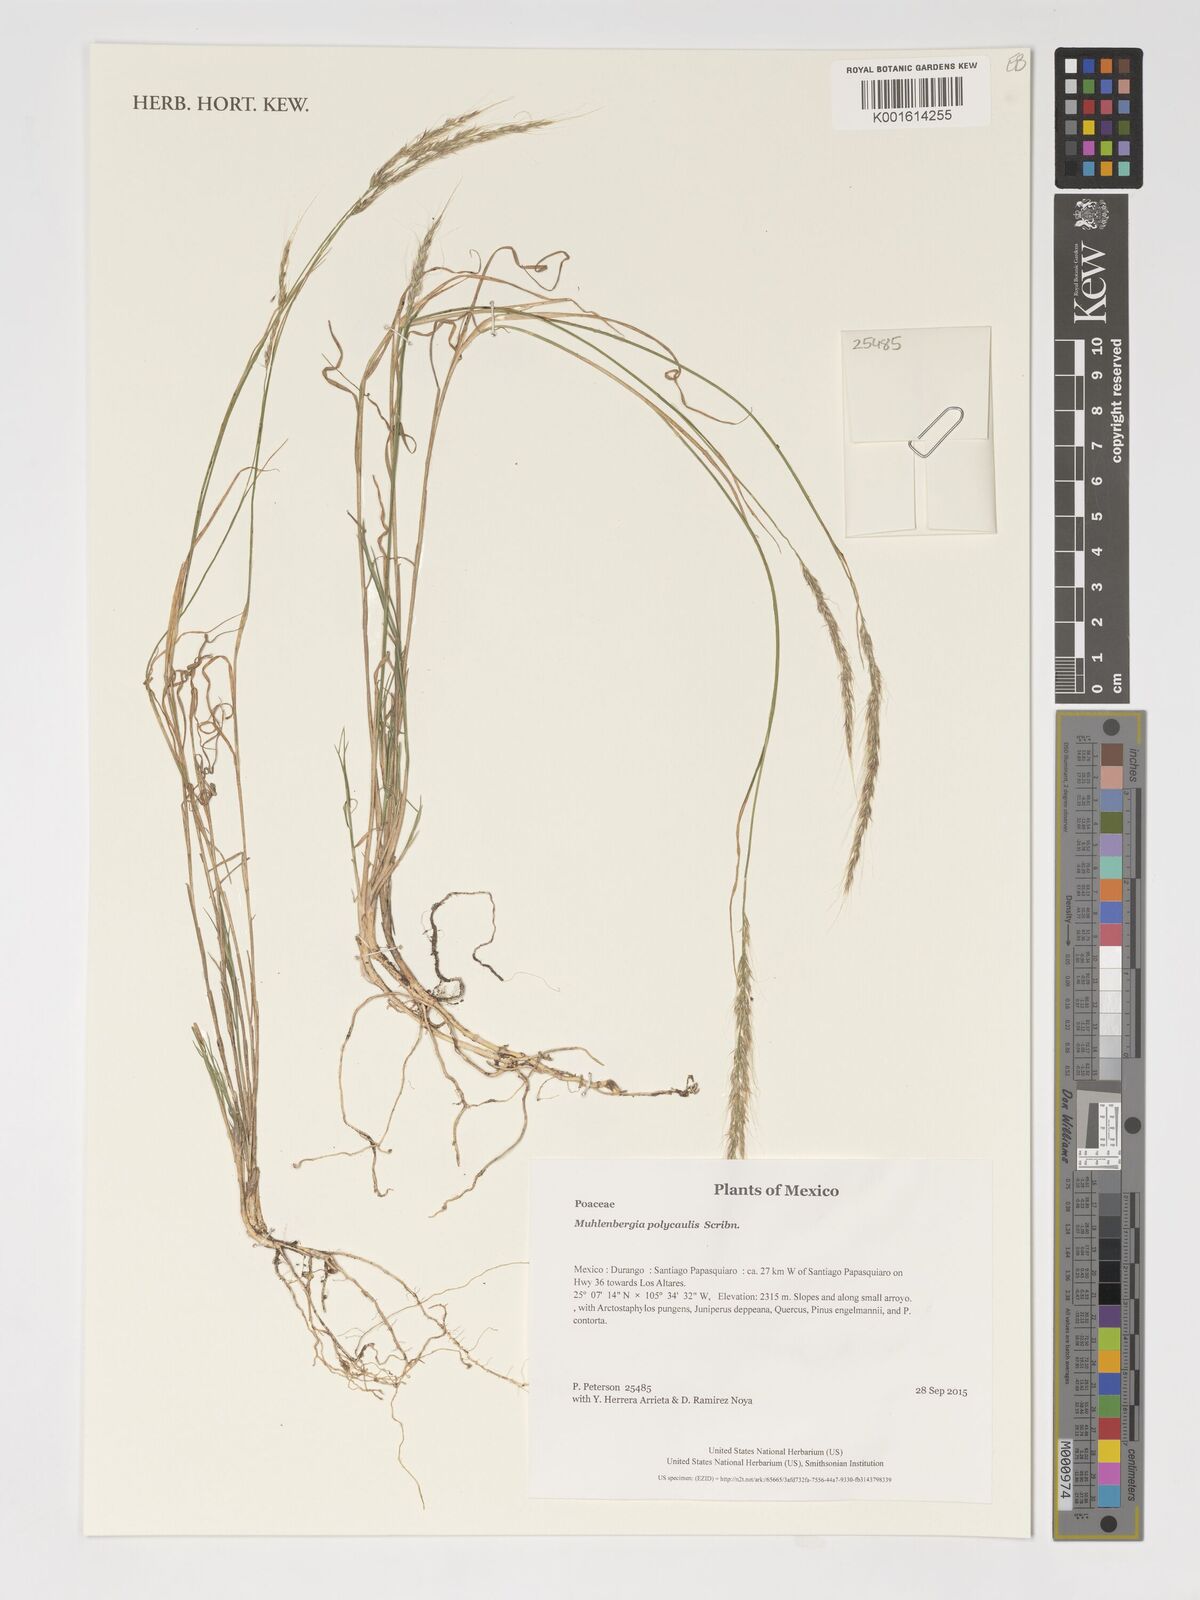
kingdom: Plantae
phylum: Tracheophyta
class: Liliopsida
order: Poales
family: Poaceae
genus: Muhlenbergia
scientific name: Muhlenbergia polycaulis
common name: Cliff muhly
